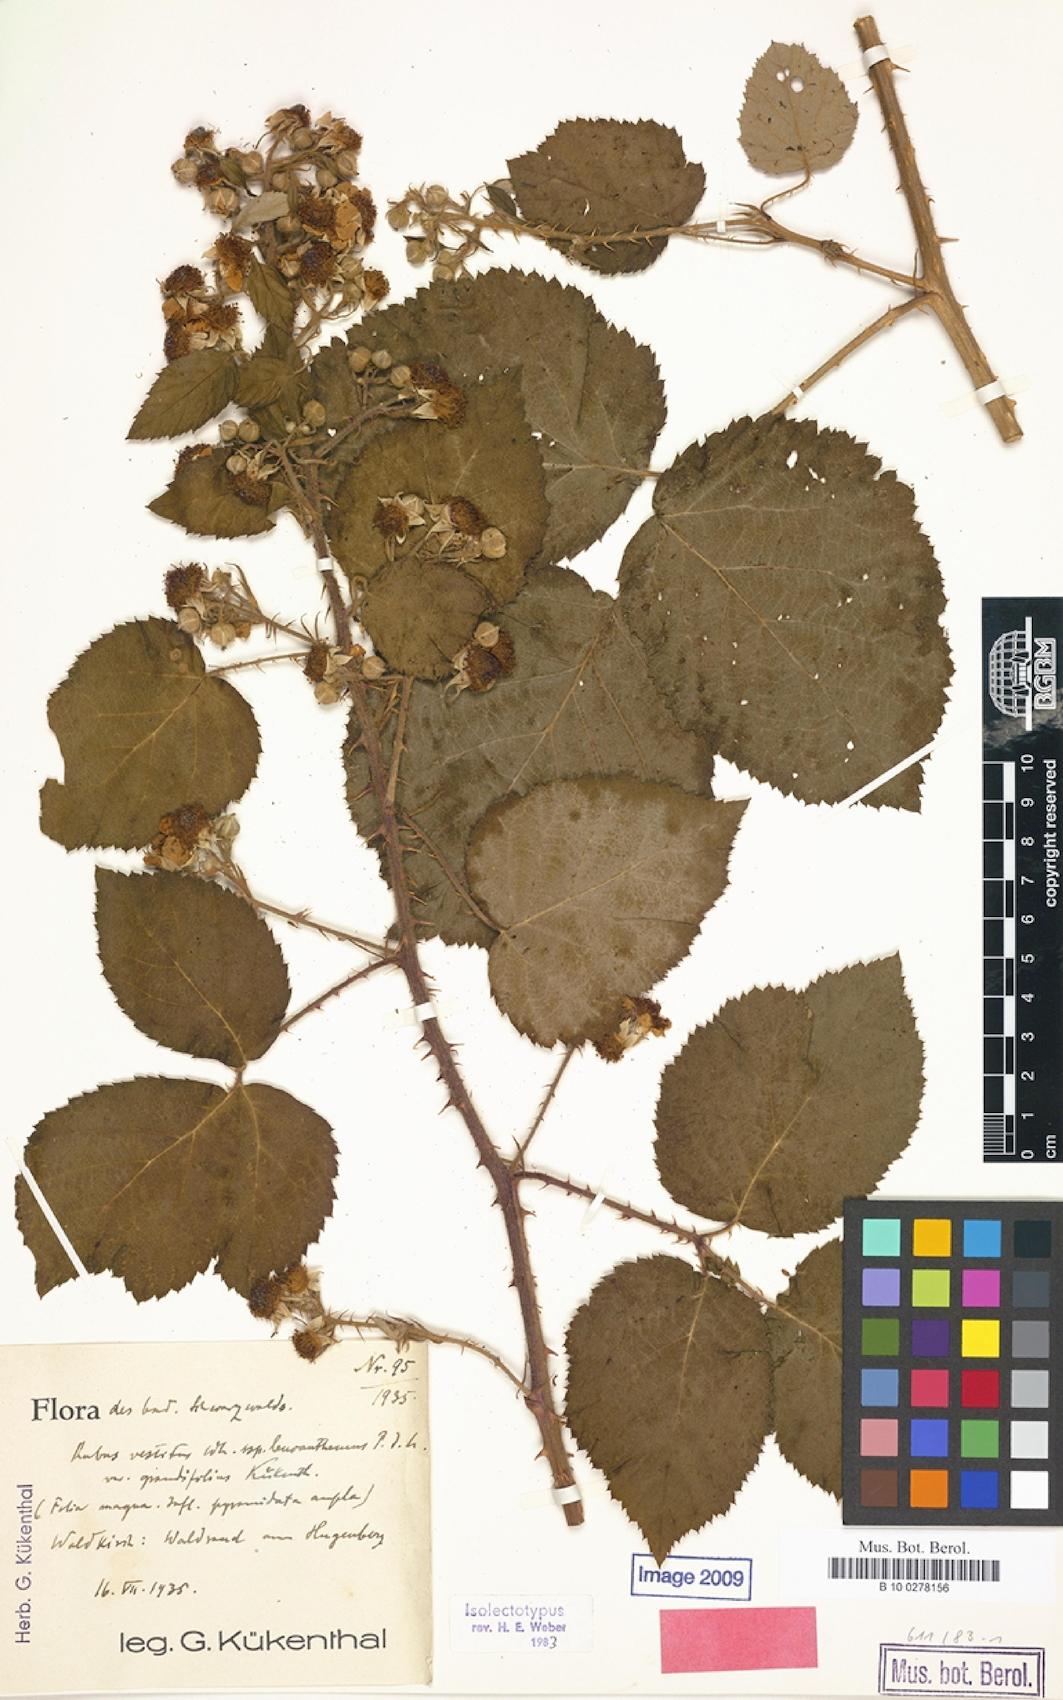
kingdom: Plantae
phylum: Tracheophyta
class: Magnoliopsida
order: Rosales
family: Rosaceae
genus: Rubus
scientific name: Rubus vestitus
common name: European blackberry
